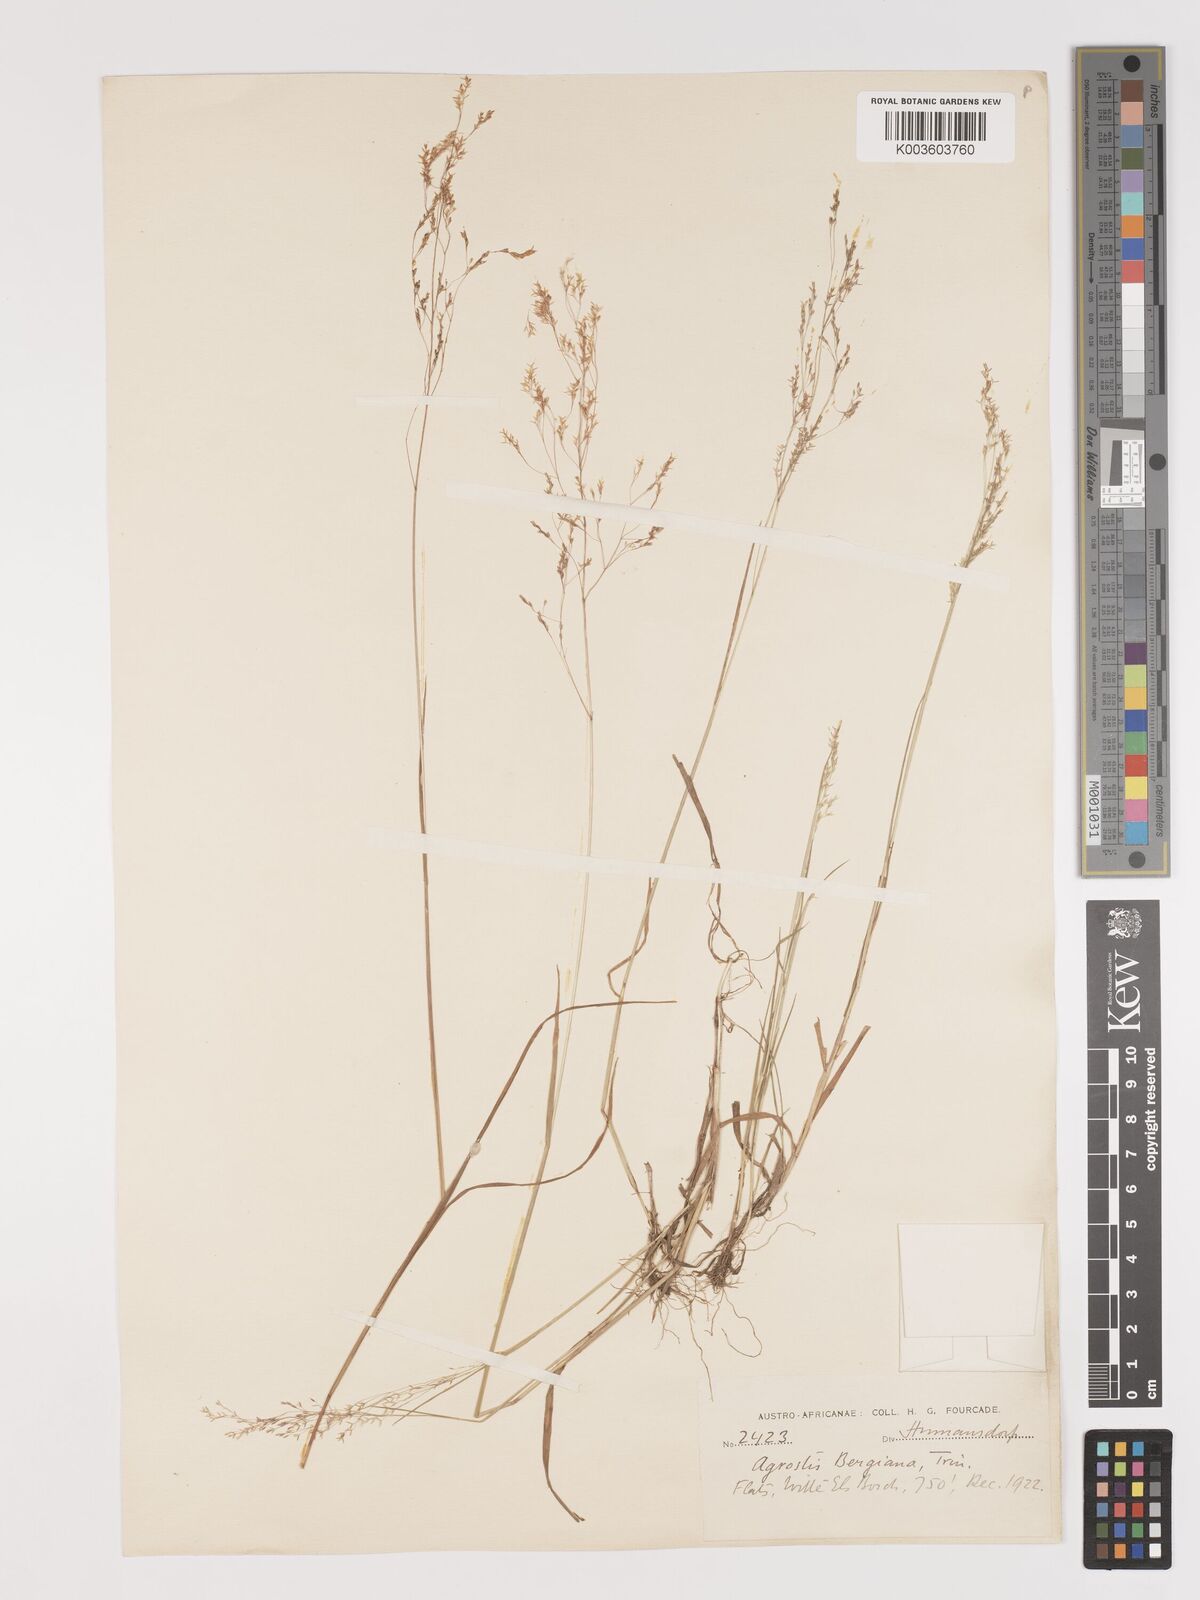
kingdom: Plantae
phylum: Tracheophyta
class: Liliopsida
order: Poales
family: Poaceae
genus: Agrostis
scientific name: Agrostis bergiana
